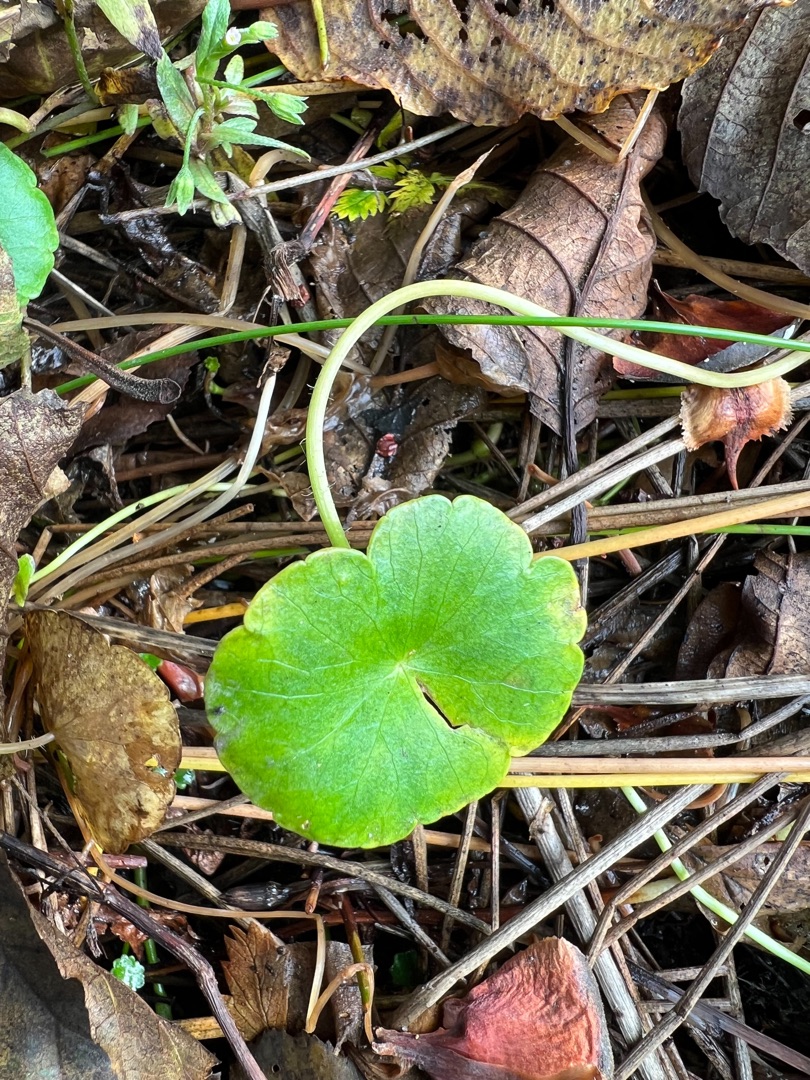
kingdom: Plantae
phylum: Tracheophyta
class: Magnoliopsida
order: Apiales
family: Araliaceae
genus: Hydrocotyle
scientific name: Hydrocotyle vulgaris
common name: Vandnavle
